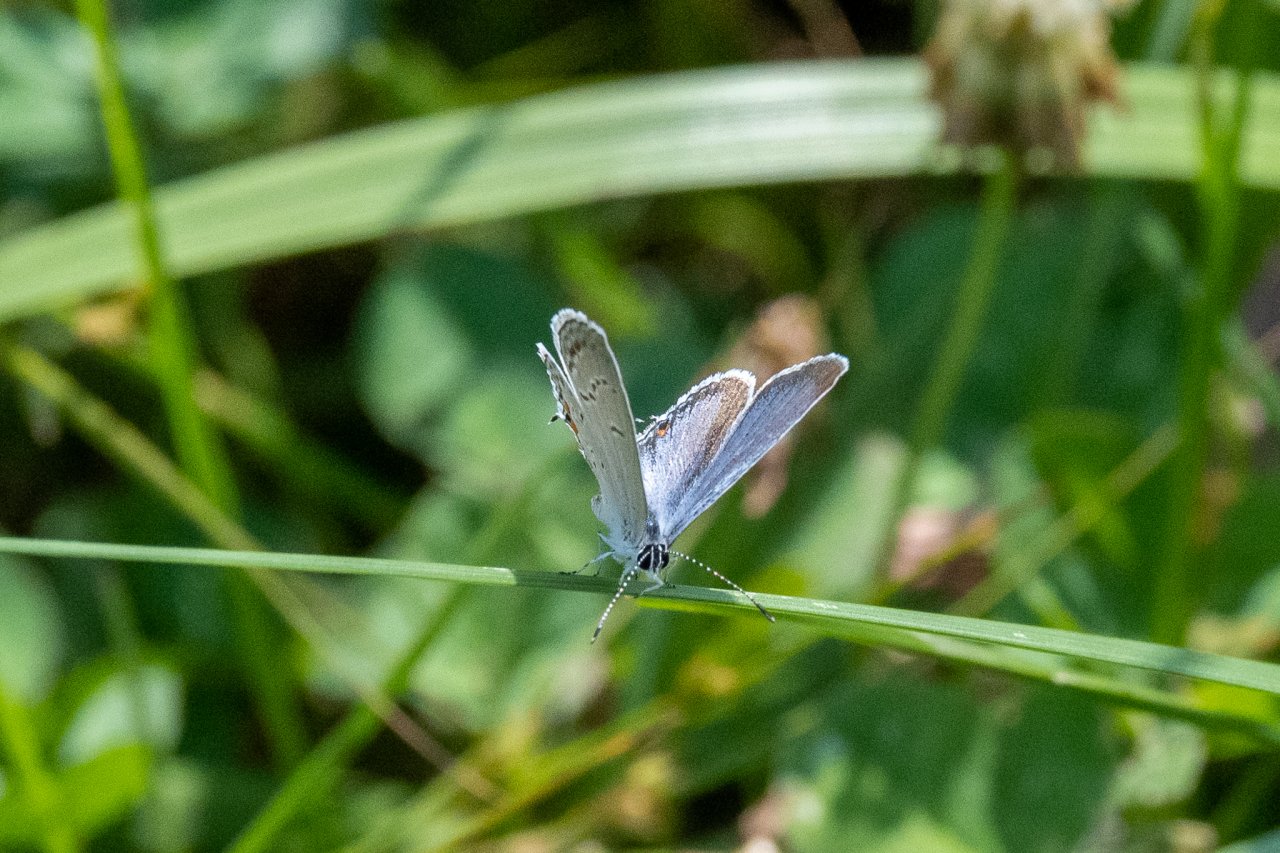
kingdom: Animalia
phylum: Arthropoda
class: Insecta
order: Lepidoptera
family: Lycaenidae
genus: Elkalyce
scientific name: Elkalyce comyntas
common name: Eastern Tailed-Blue
